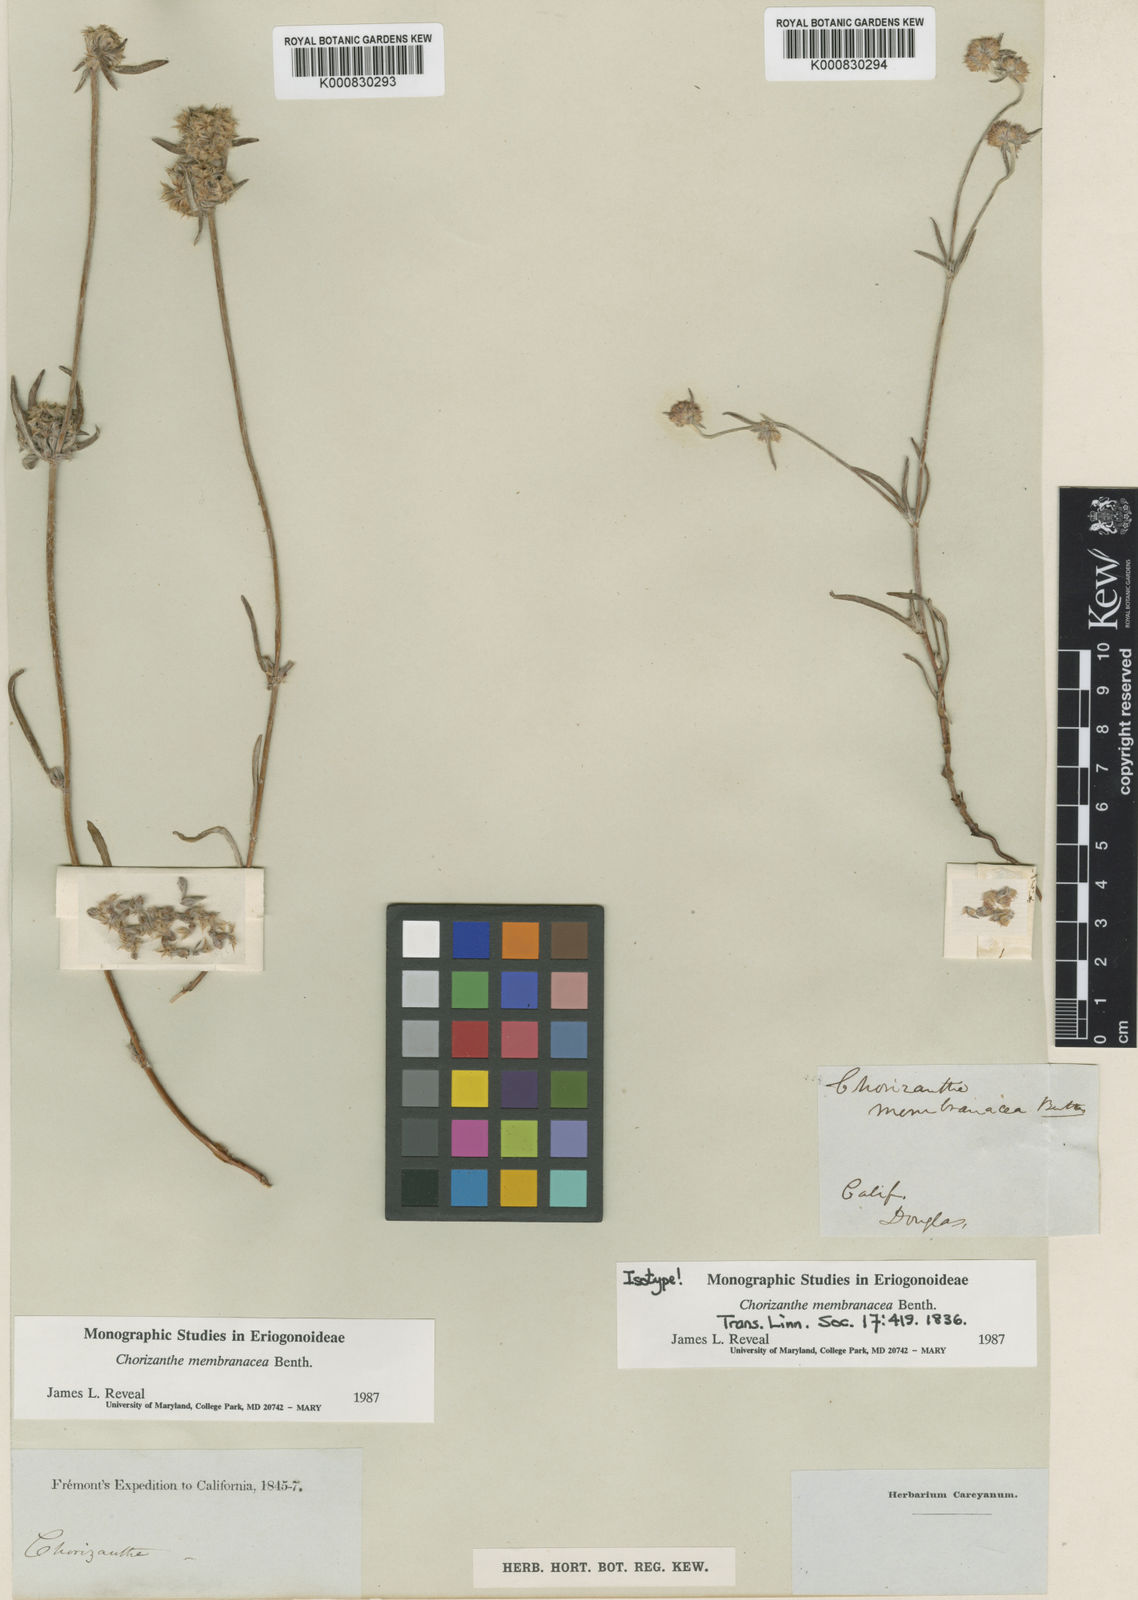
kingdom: Plantae
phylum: Tracheophyta
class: Magnoliopsida
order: Caryophyllales
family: Polygonaceae
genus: Chorizanthe
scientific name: Chorizanthe membranacea
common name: Pink spineflower
